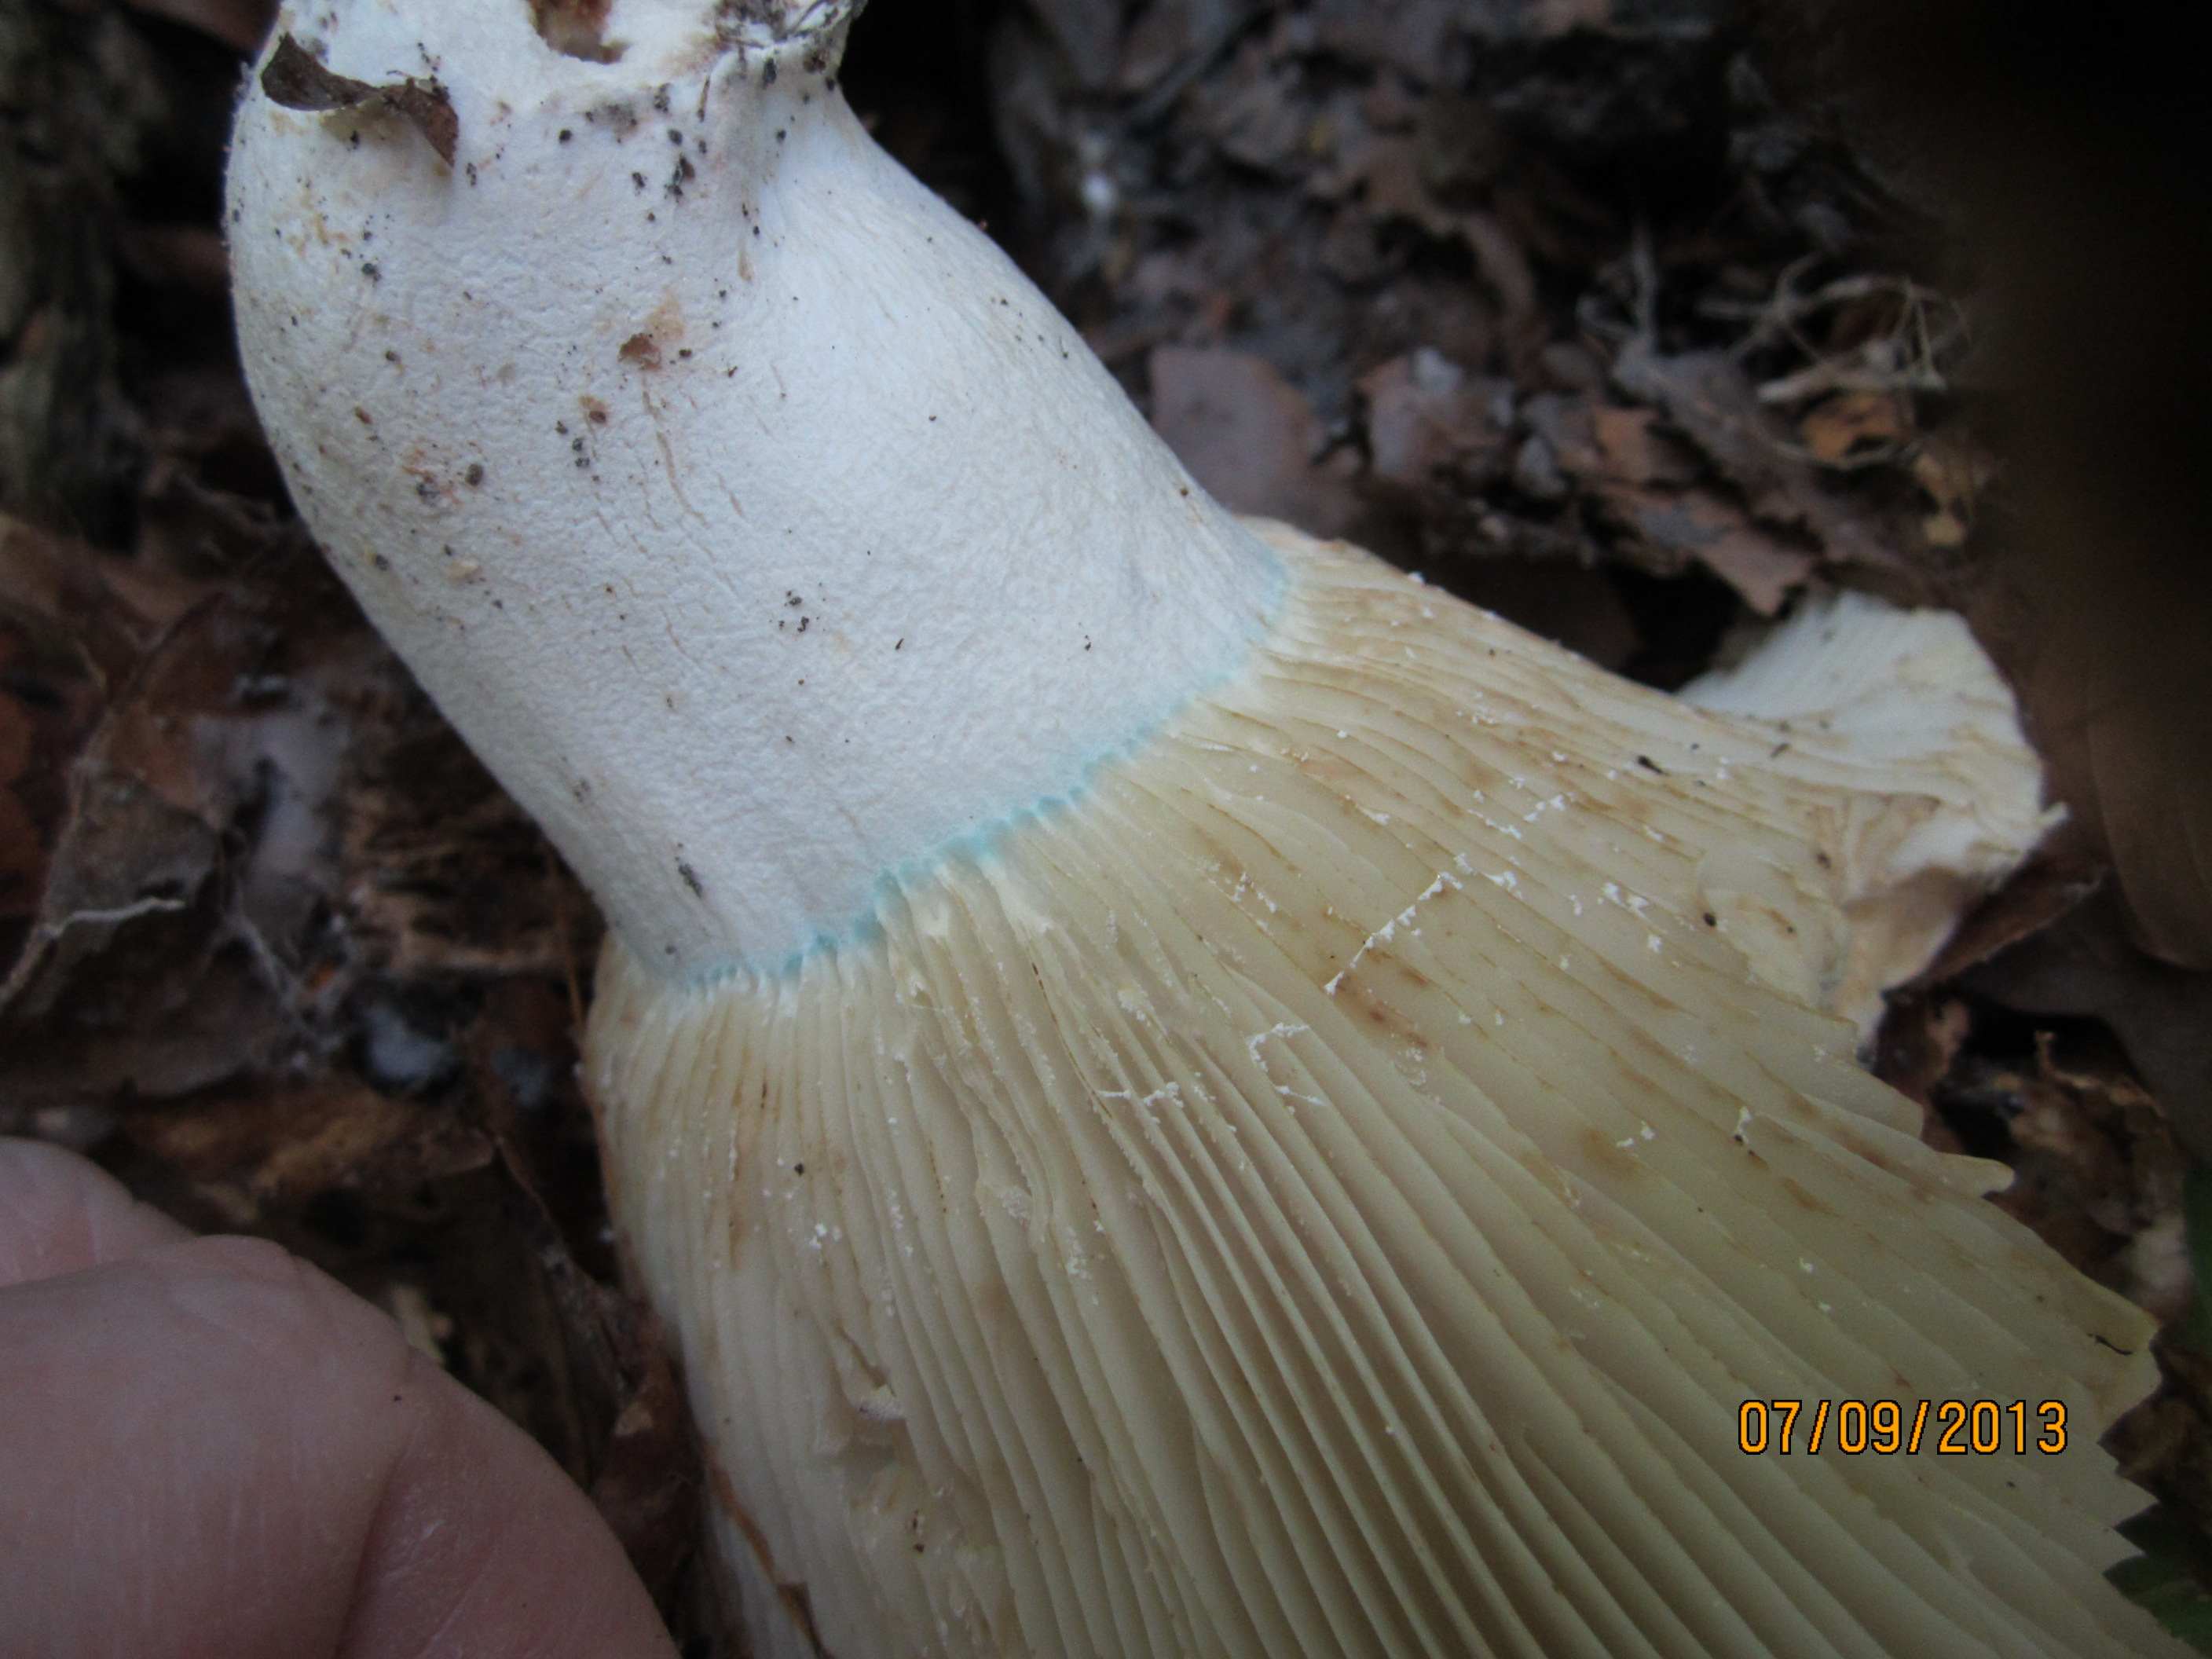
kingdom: Fungi
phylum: Basidiomycota
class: Agaricomycetes
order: Russulales
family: Russulaceae
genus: Russula
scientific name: Russula chloroides
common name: grønhalset tragt-skørhat
